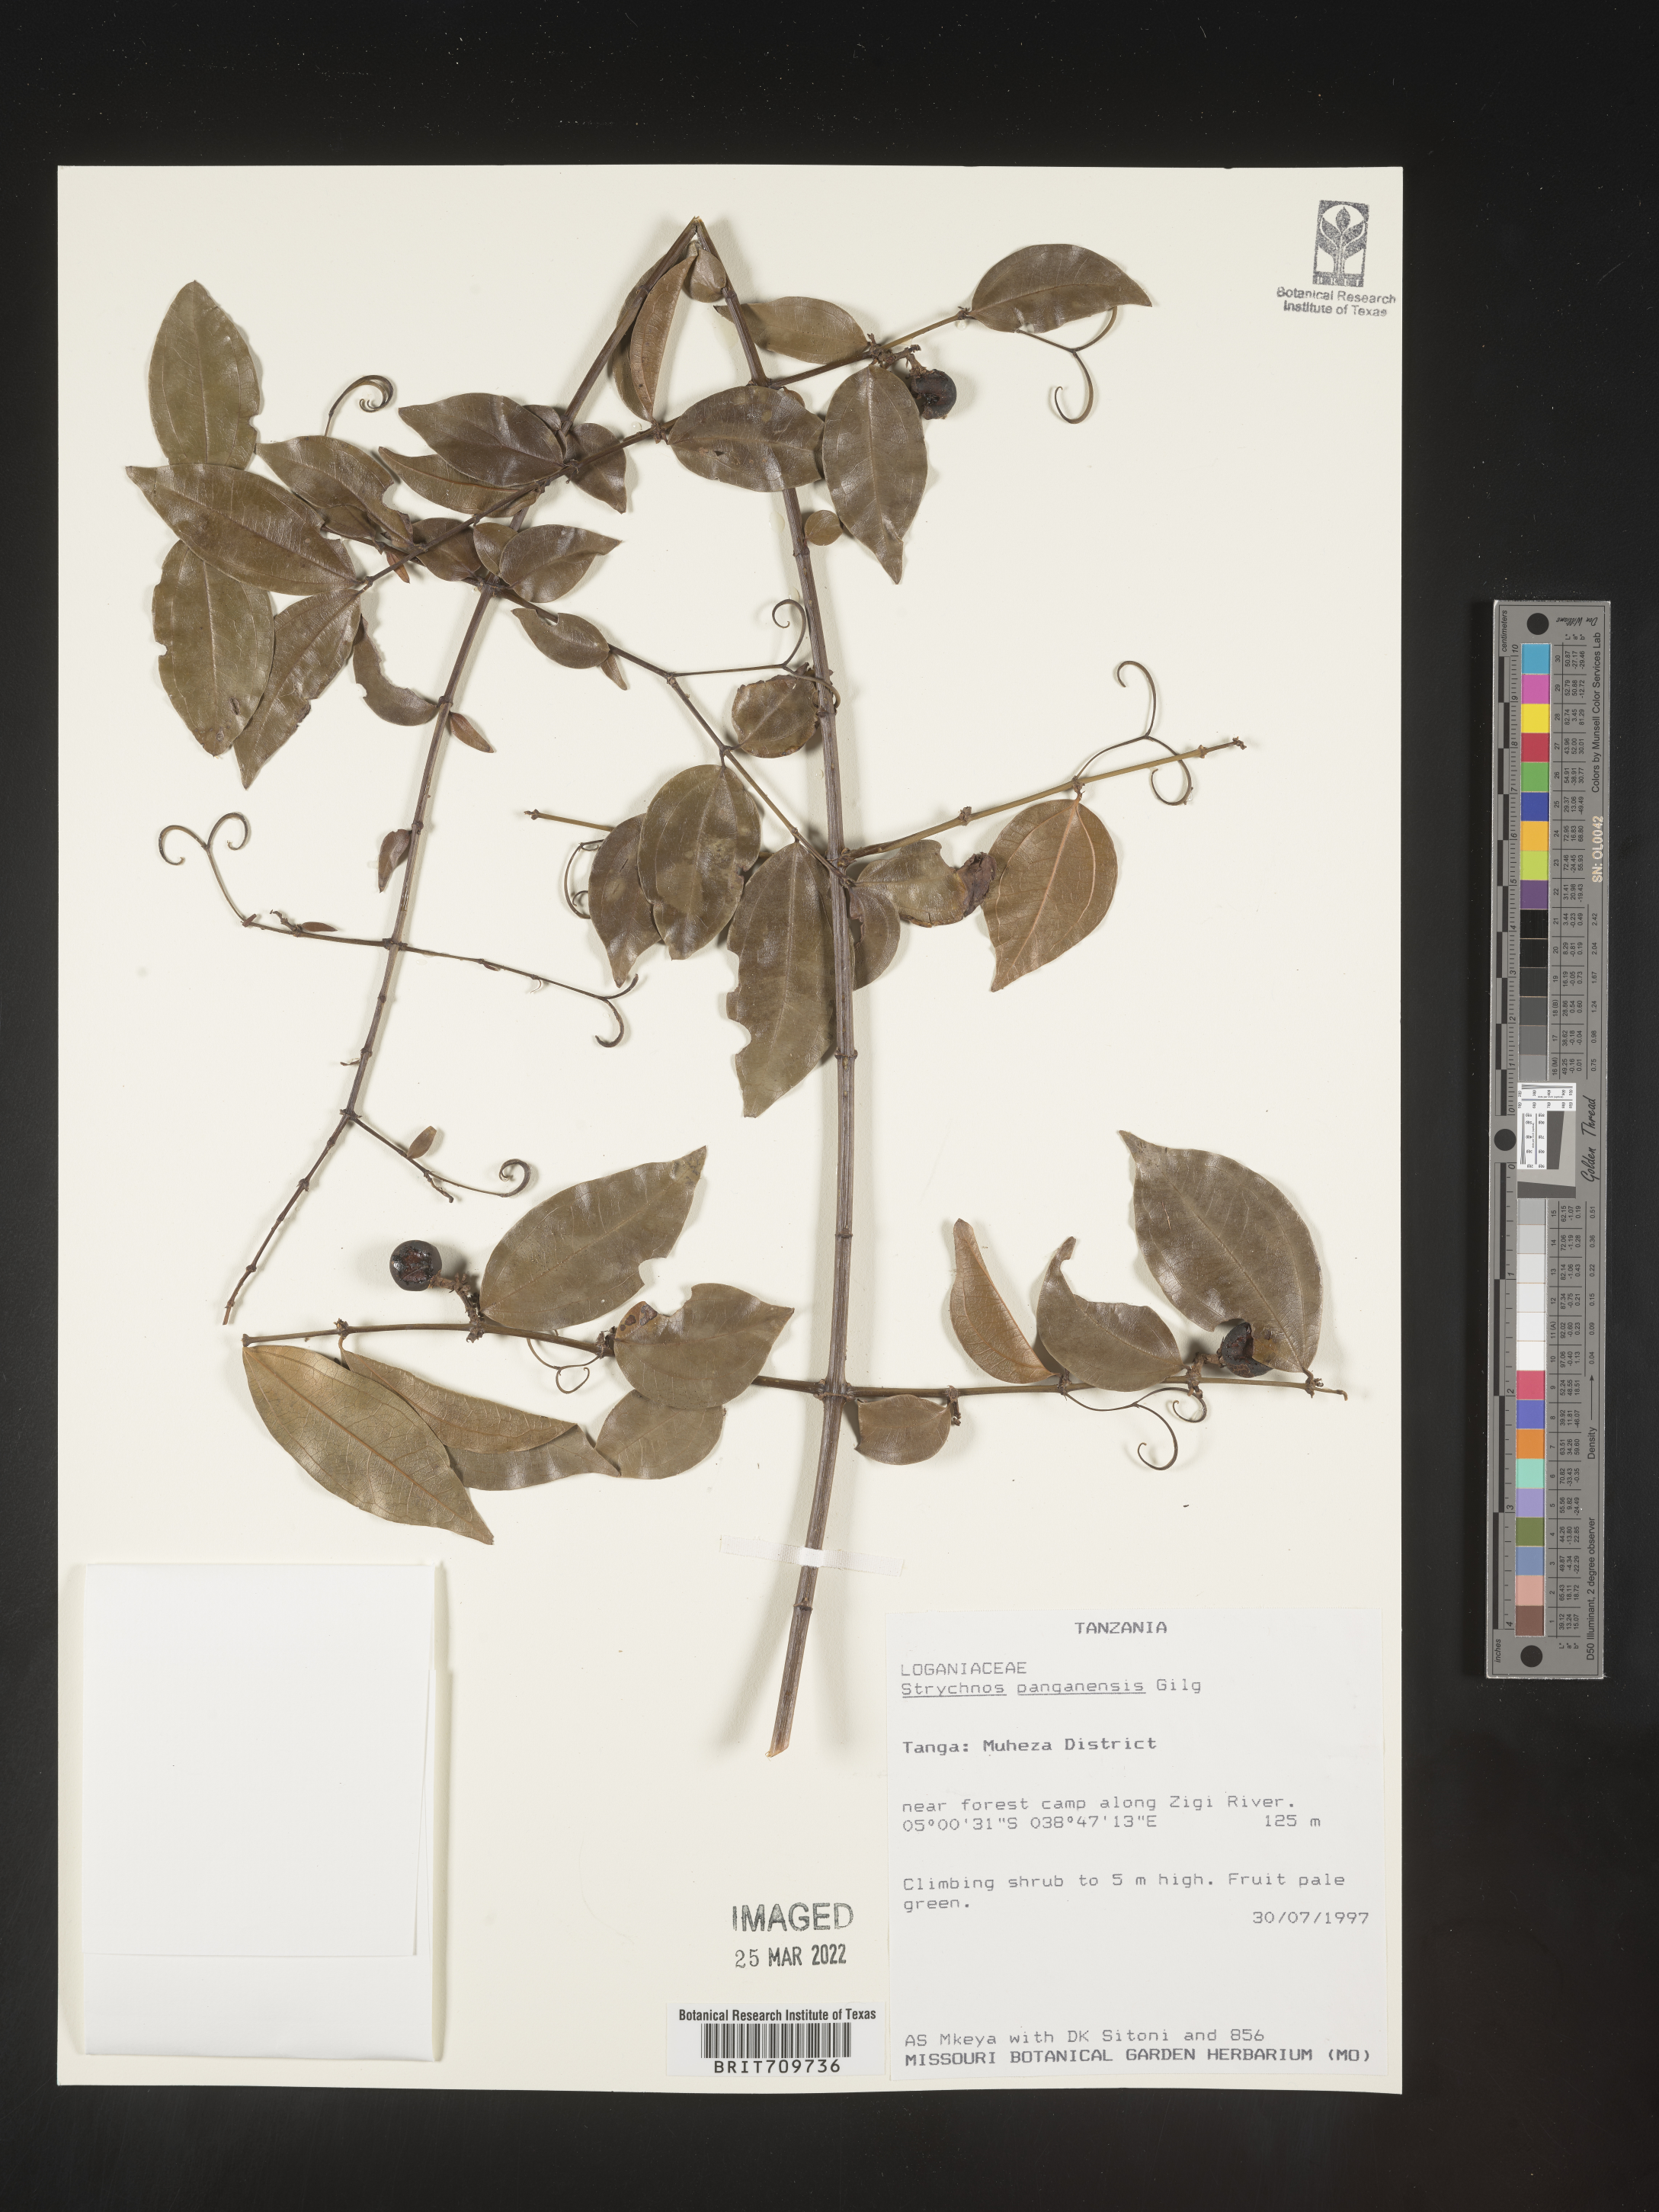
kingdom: Plantae
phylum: Tracheophyta
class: Magnoliopsida
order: Gentianales
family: Loganiaceae
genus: Strychnos
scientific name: Strychnos
